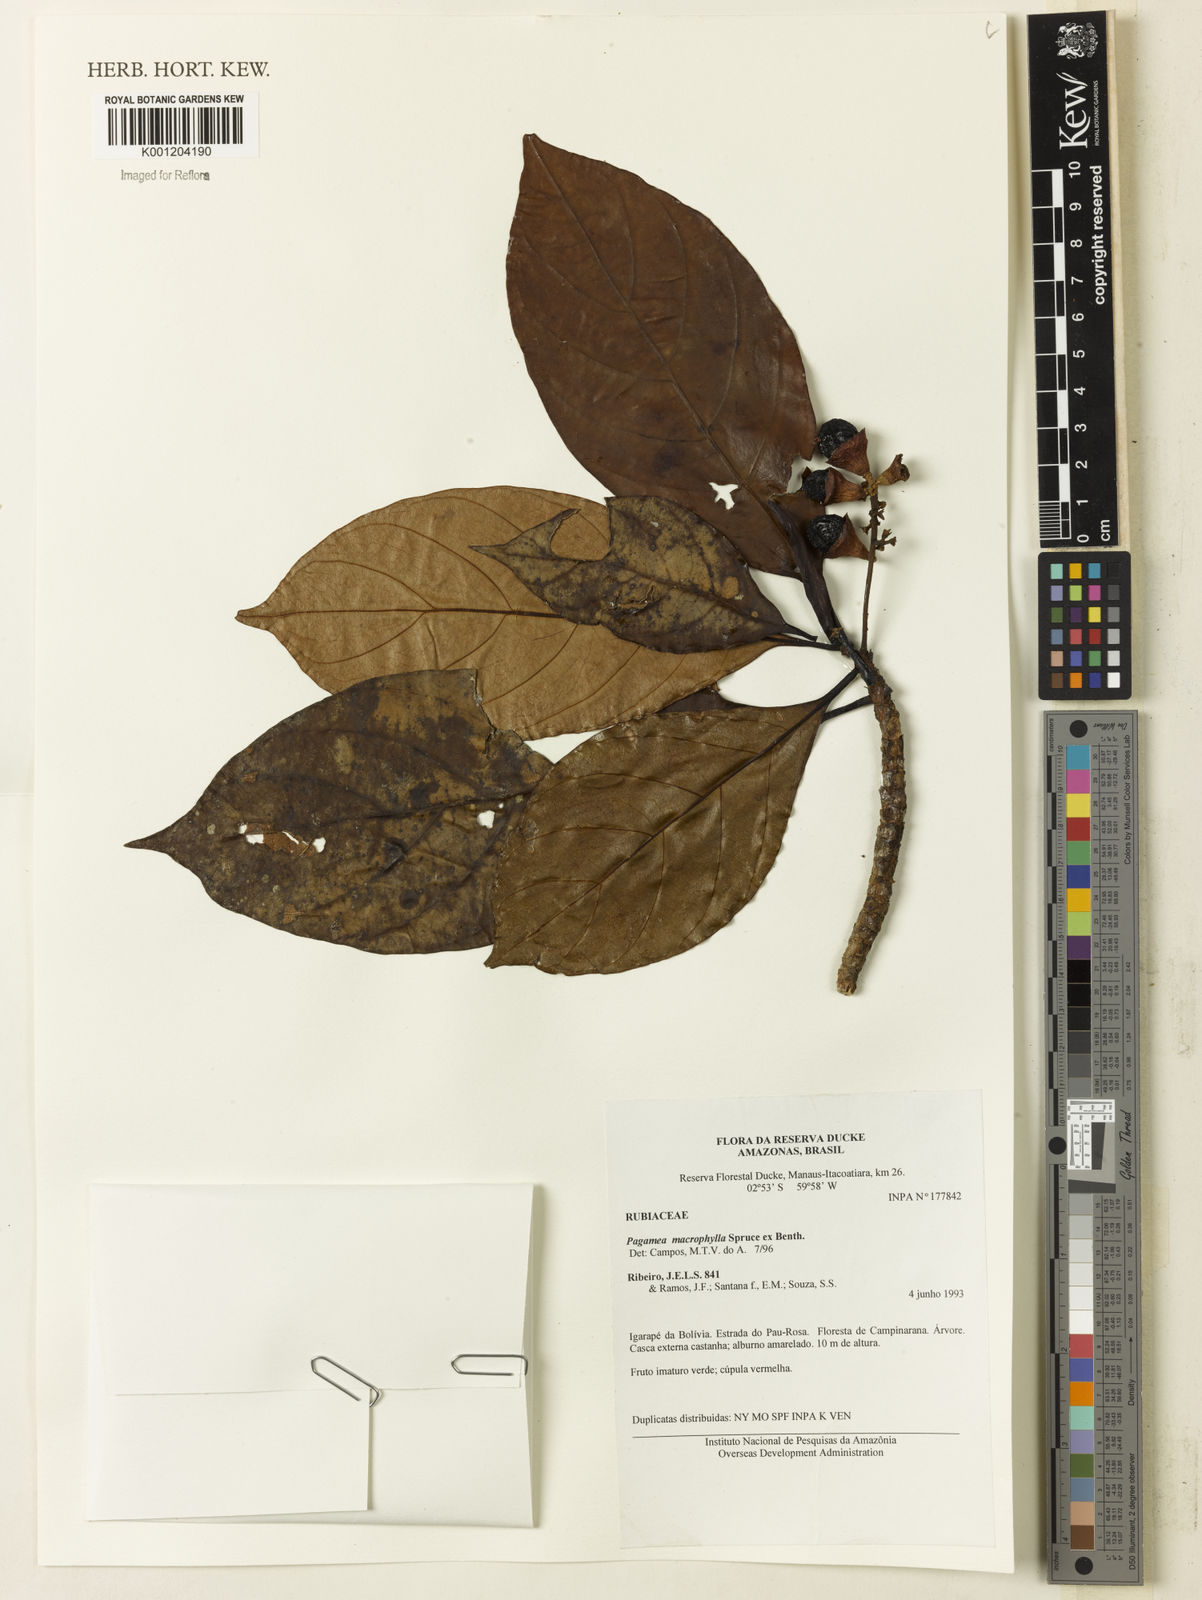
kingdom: Plantae
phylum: Tracheophyta
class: Magnoliopsida
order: Gentianales
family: Rubiaceae
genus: Pagamea
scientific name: Pagamea macrophylla
